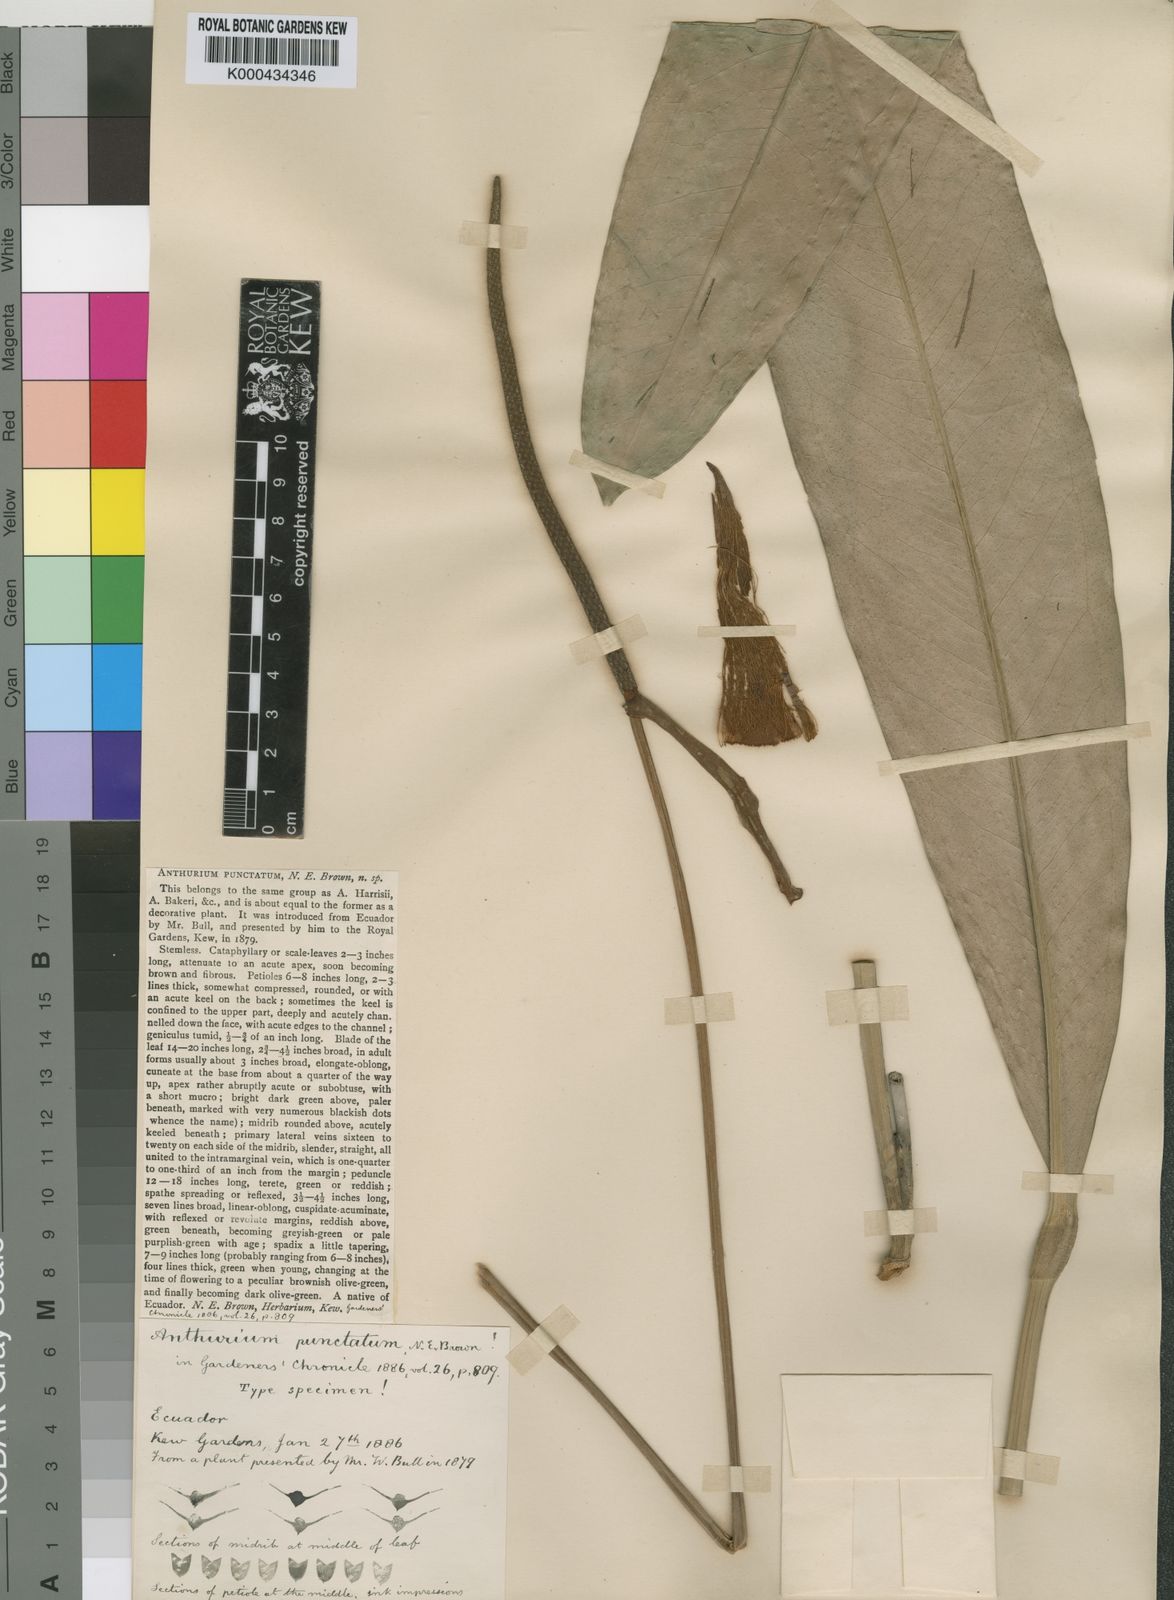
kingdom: Plantae
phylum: Tracheophyta
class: Liliopsida
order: Alismatales
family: Araceae
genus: Anthurium
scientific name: Anthurium pohlianum
